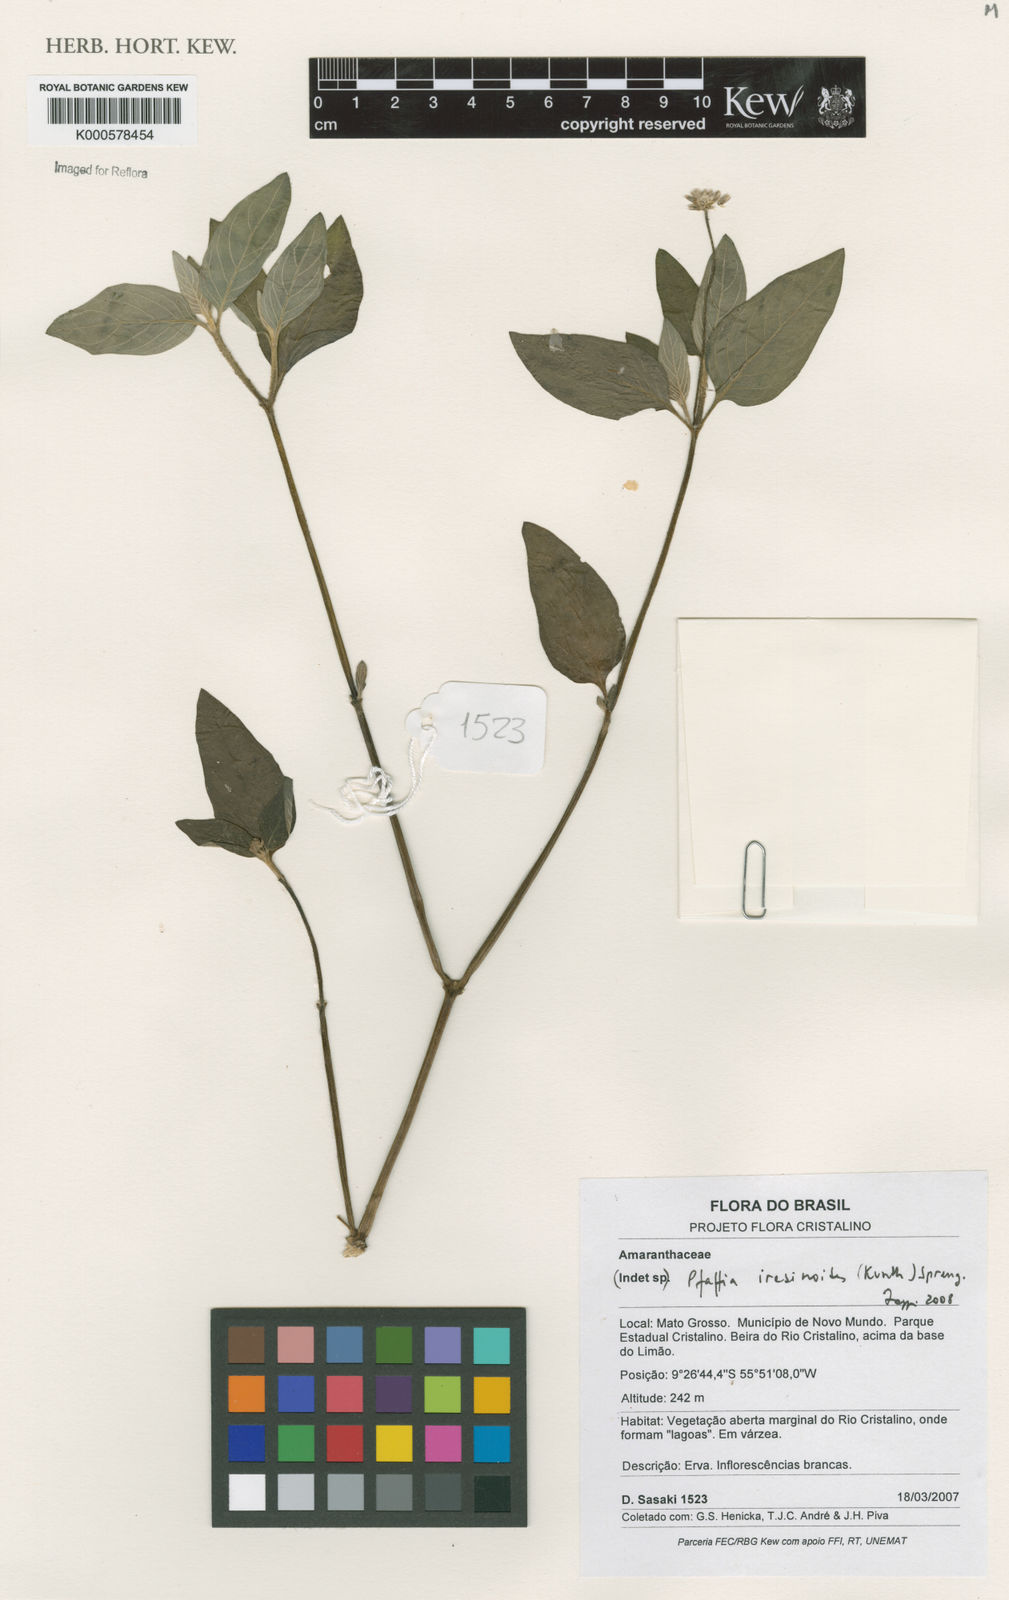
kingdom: Plantae
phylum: Tracheophyta
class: Magnoliopsida
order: Caryophyllales
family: Amaranthaceae
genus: Pfaffia
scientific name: Pfaffia iresinoides
